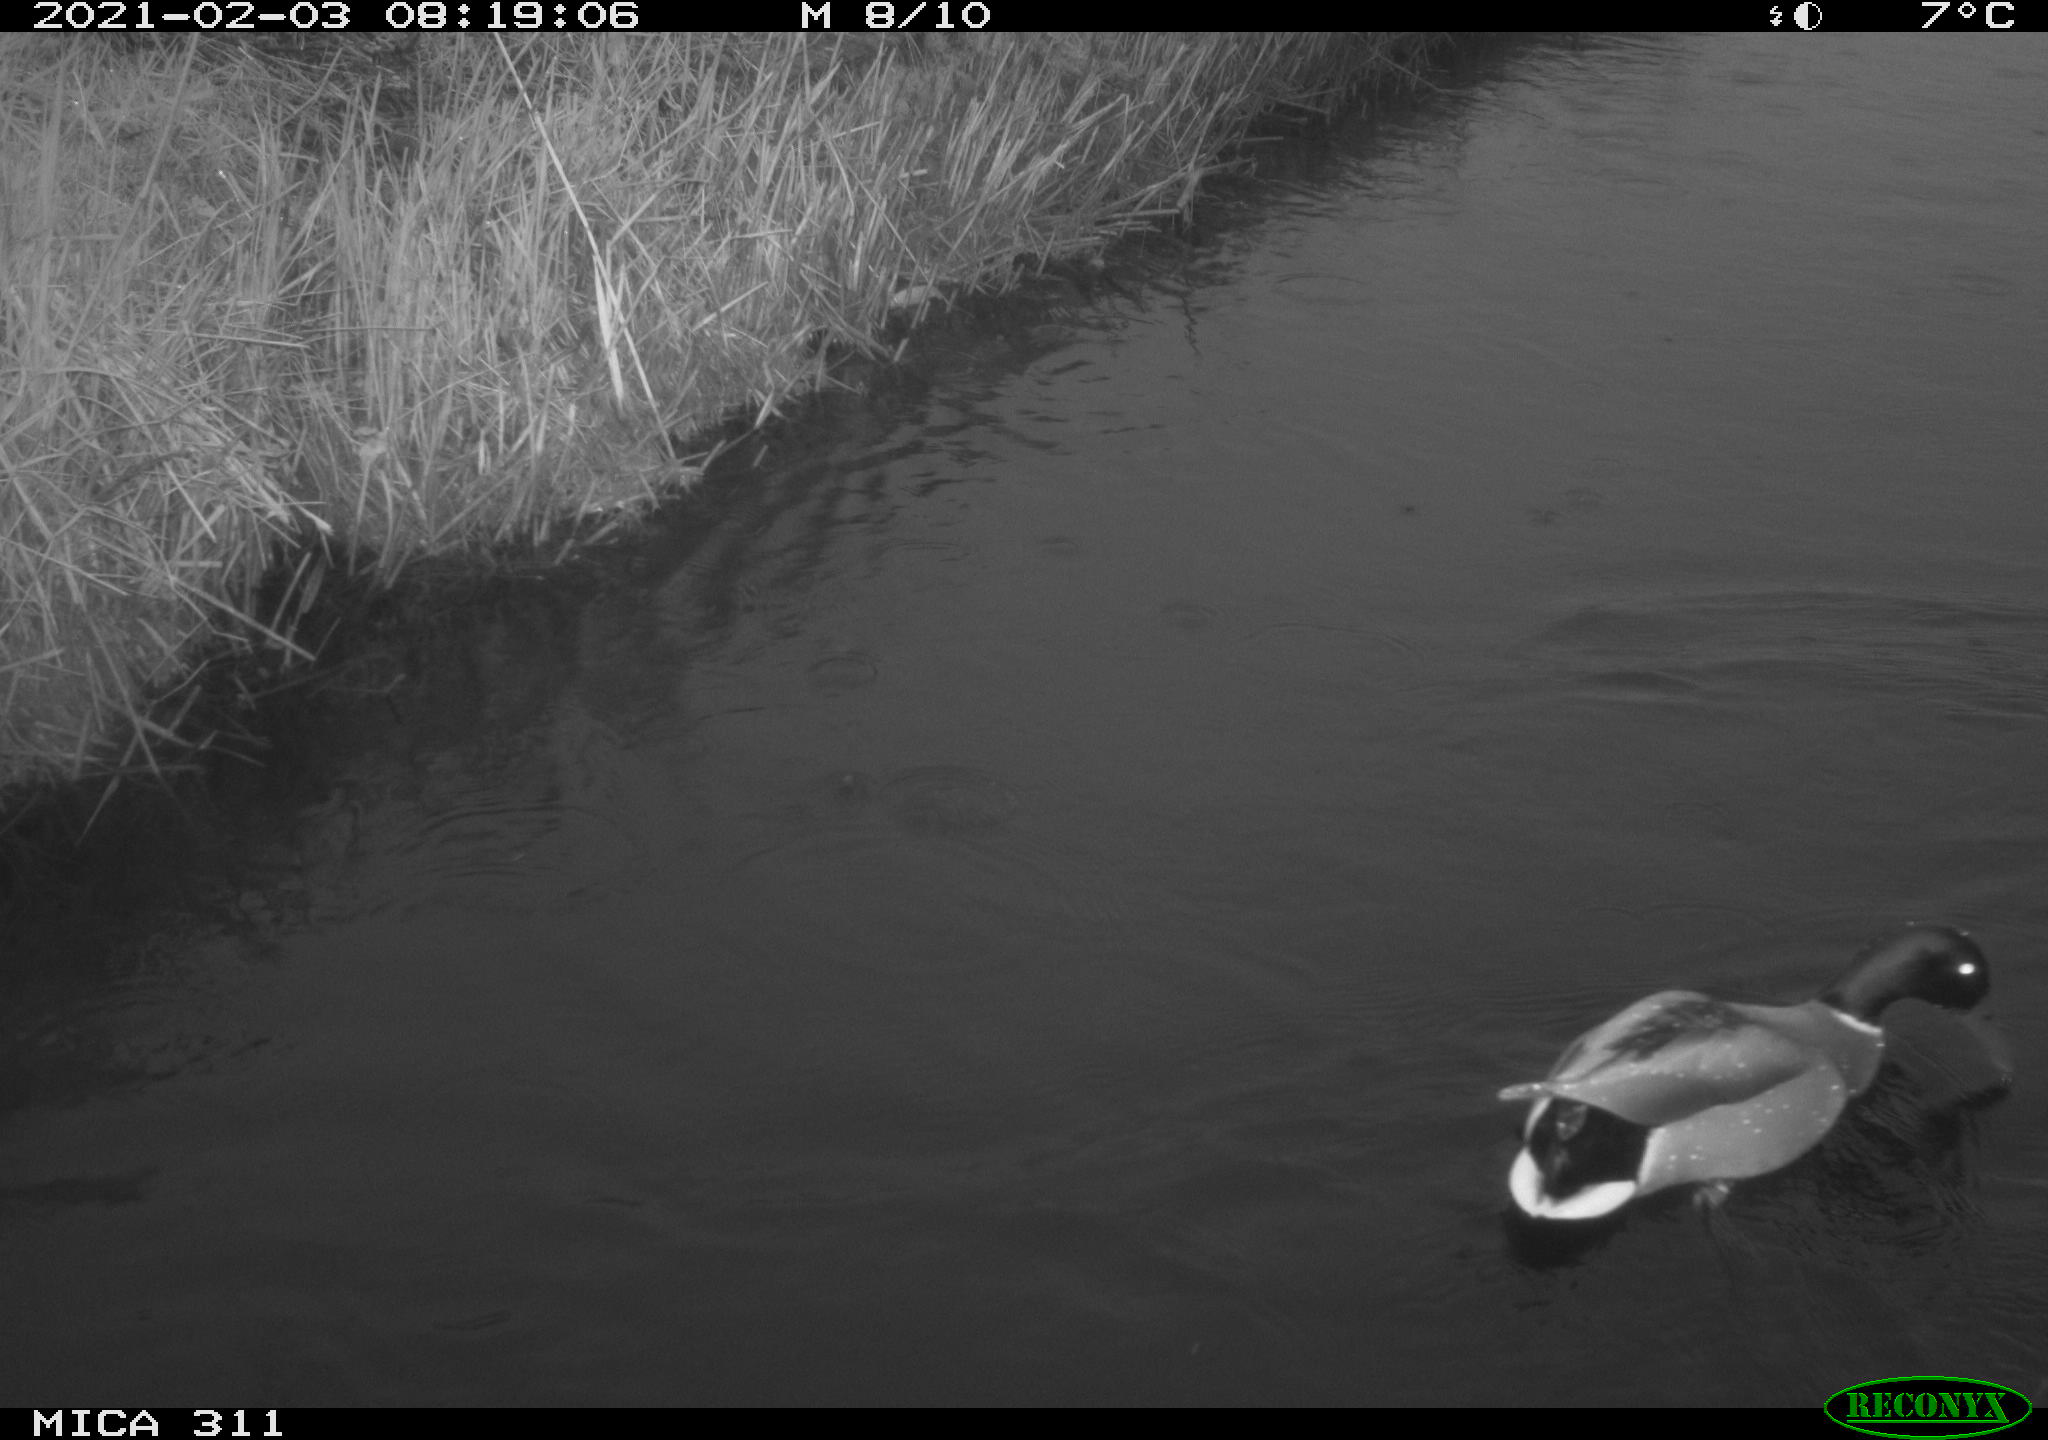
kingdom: Animalia
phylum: Chordata
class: Aves
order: Anseriformes
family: Anatidae
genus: Anas
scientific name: Anas
